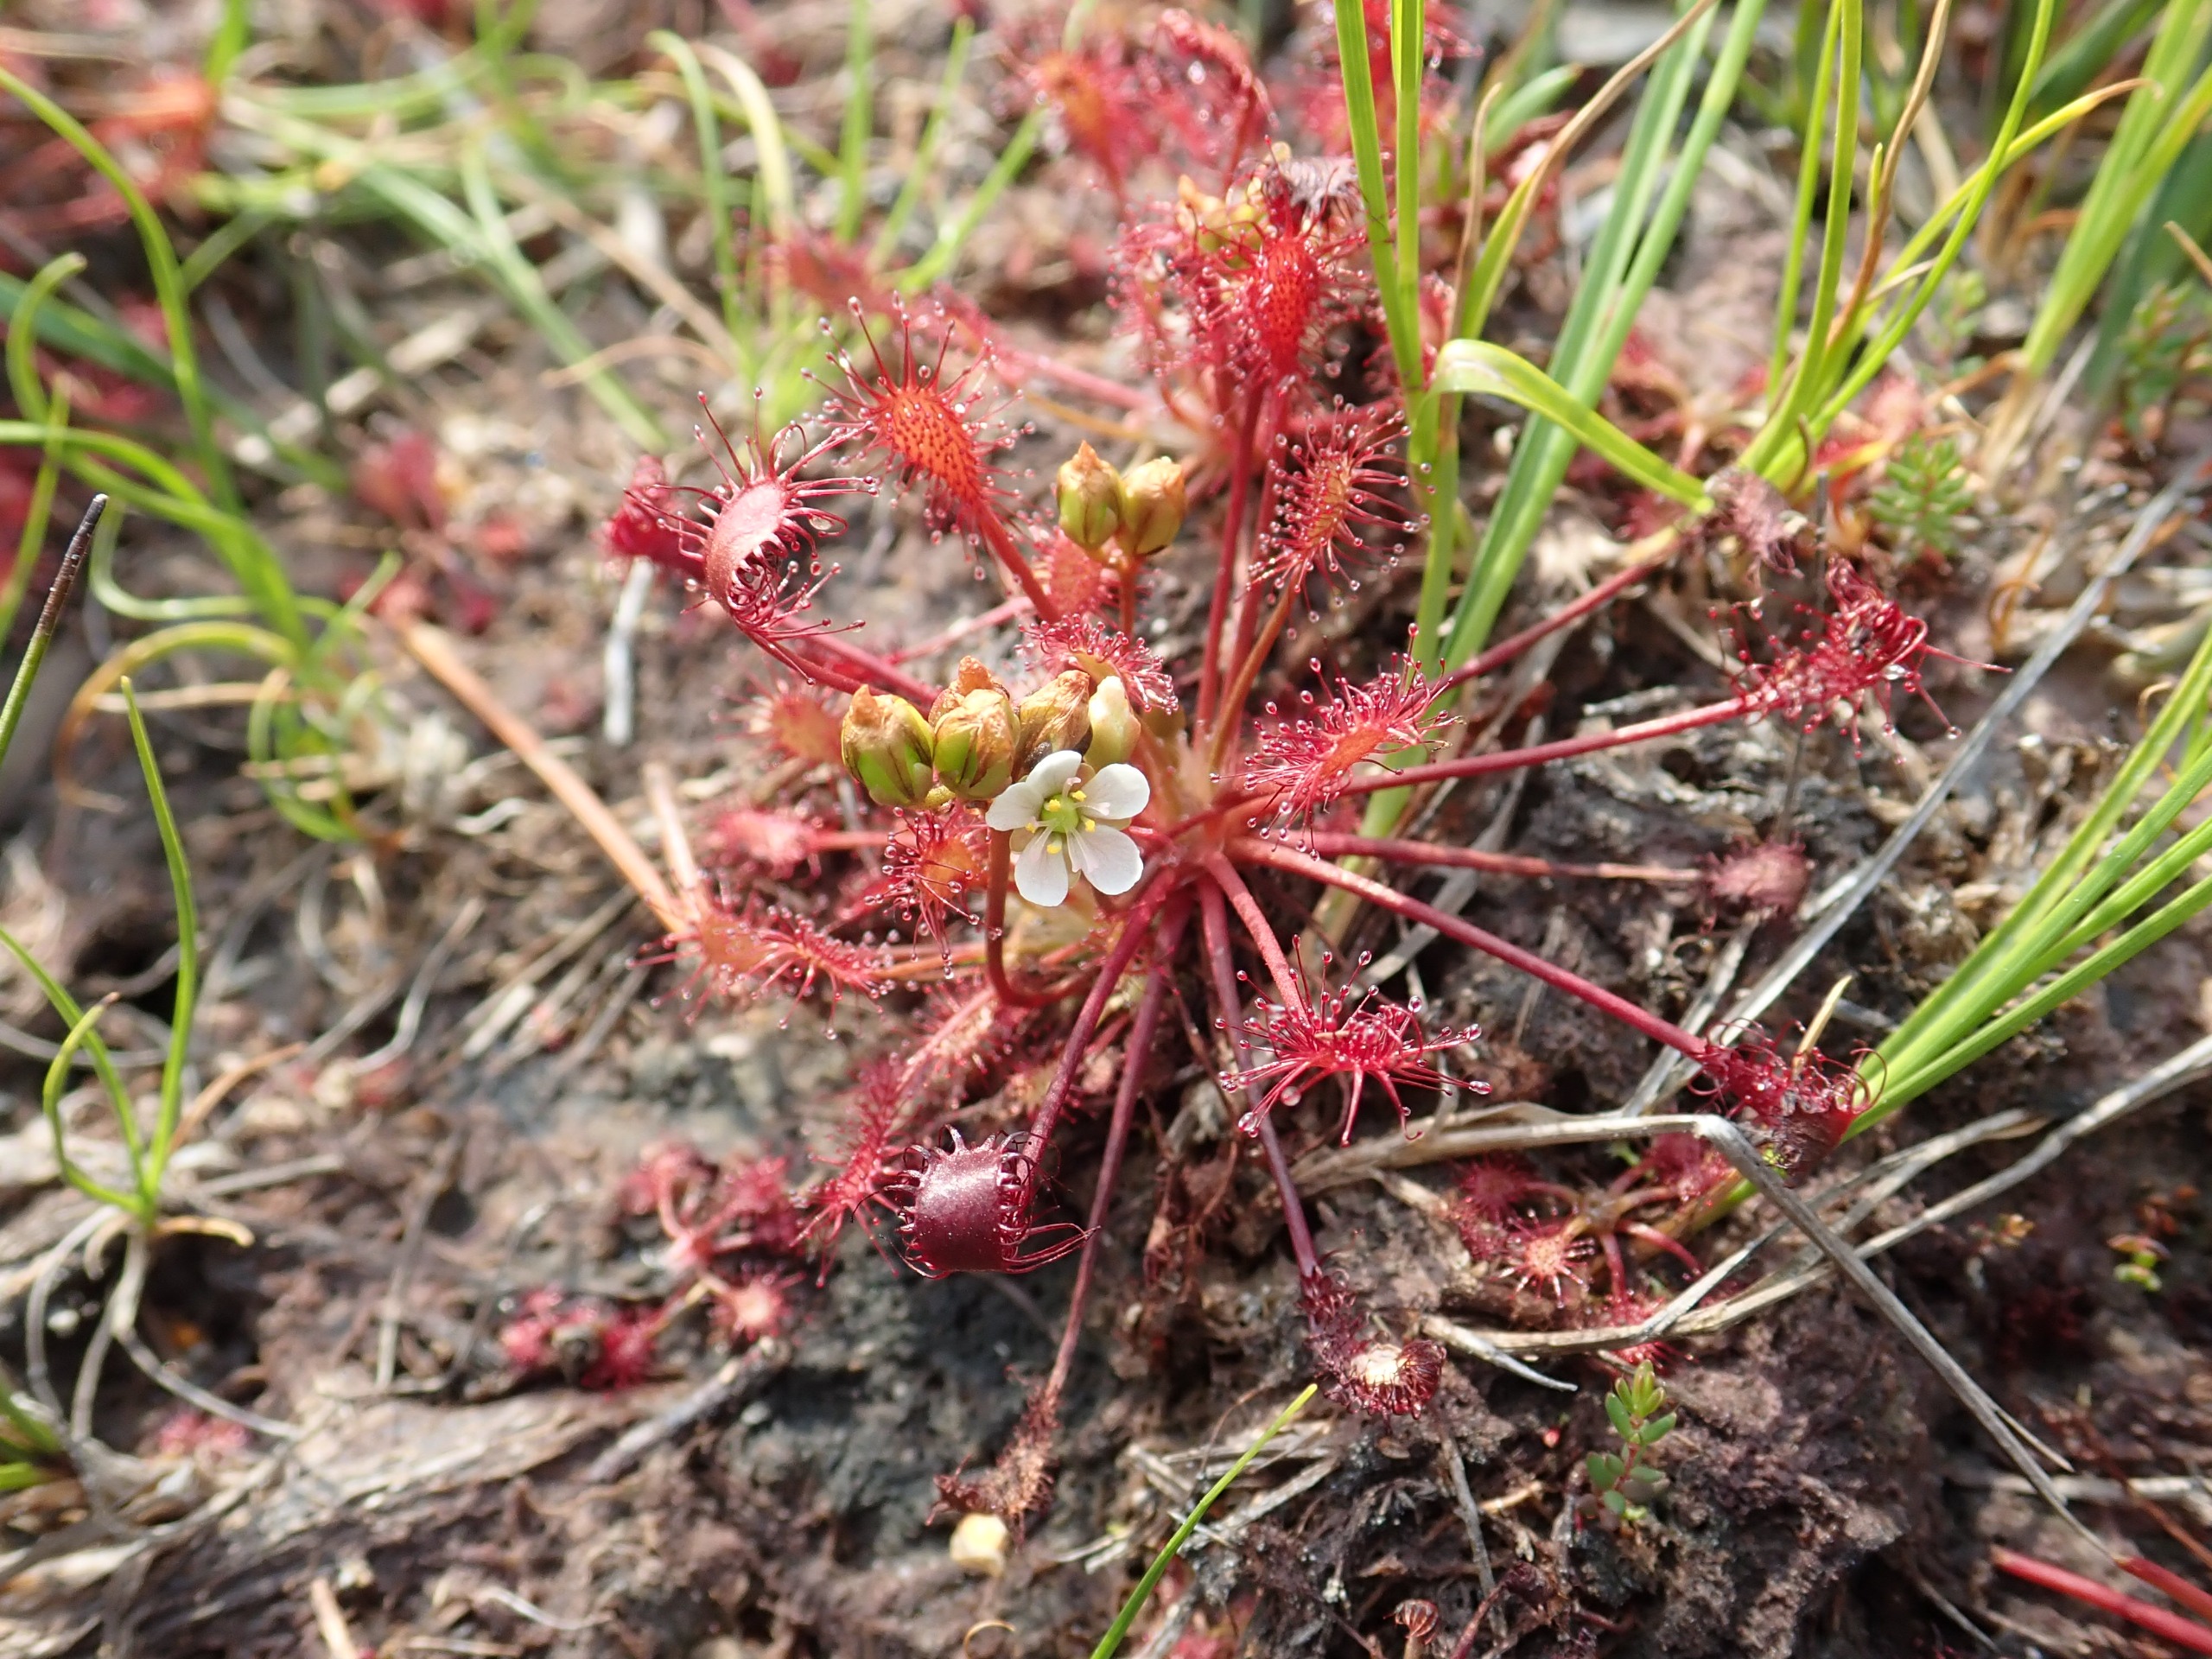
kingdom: Plantae
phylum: Tracheophyta
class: Magnoliopsida
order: Caryophyllales
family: Droseraceae
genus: Drosera
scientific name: Drosera intermedia
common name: Liden soldug
